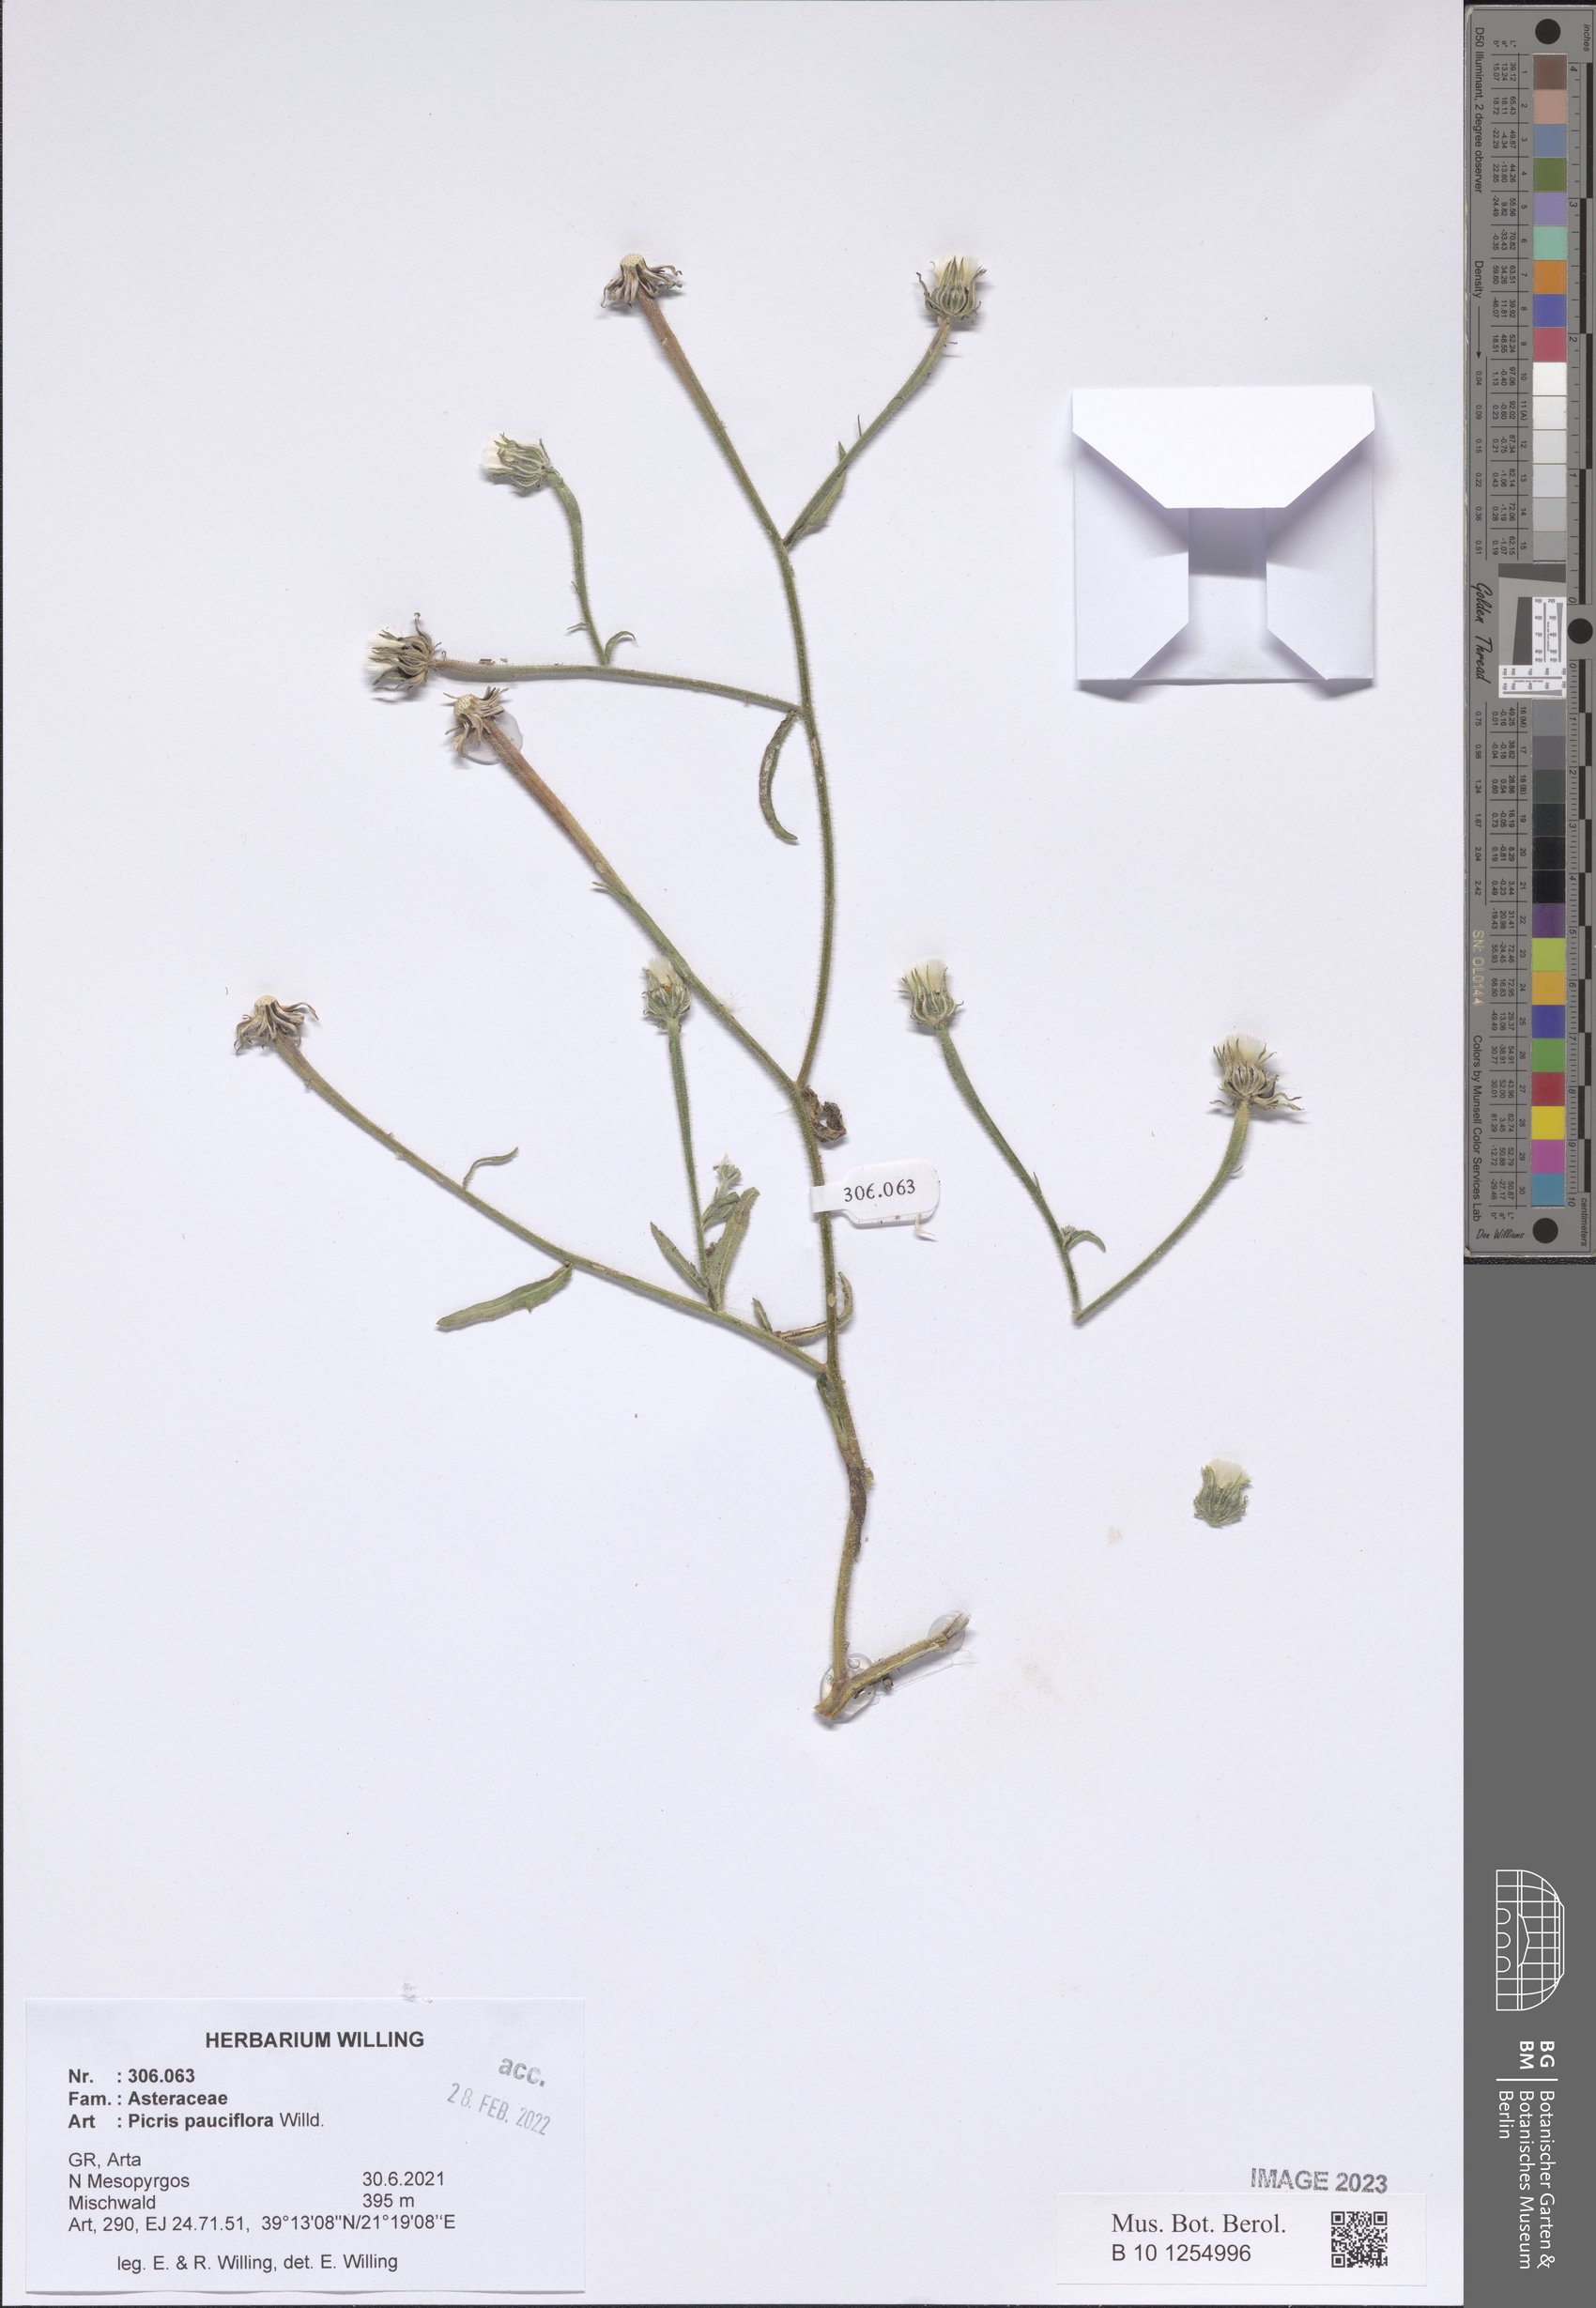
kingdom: Plantae
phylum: Tracheophyta
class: Magnoliopsida
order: Asterales
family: Asteraceae
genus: Picris
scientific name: Picris pauciflora
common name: Smallflower oxtongue
